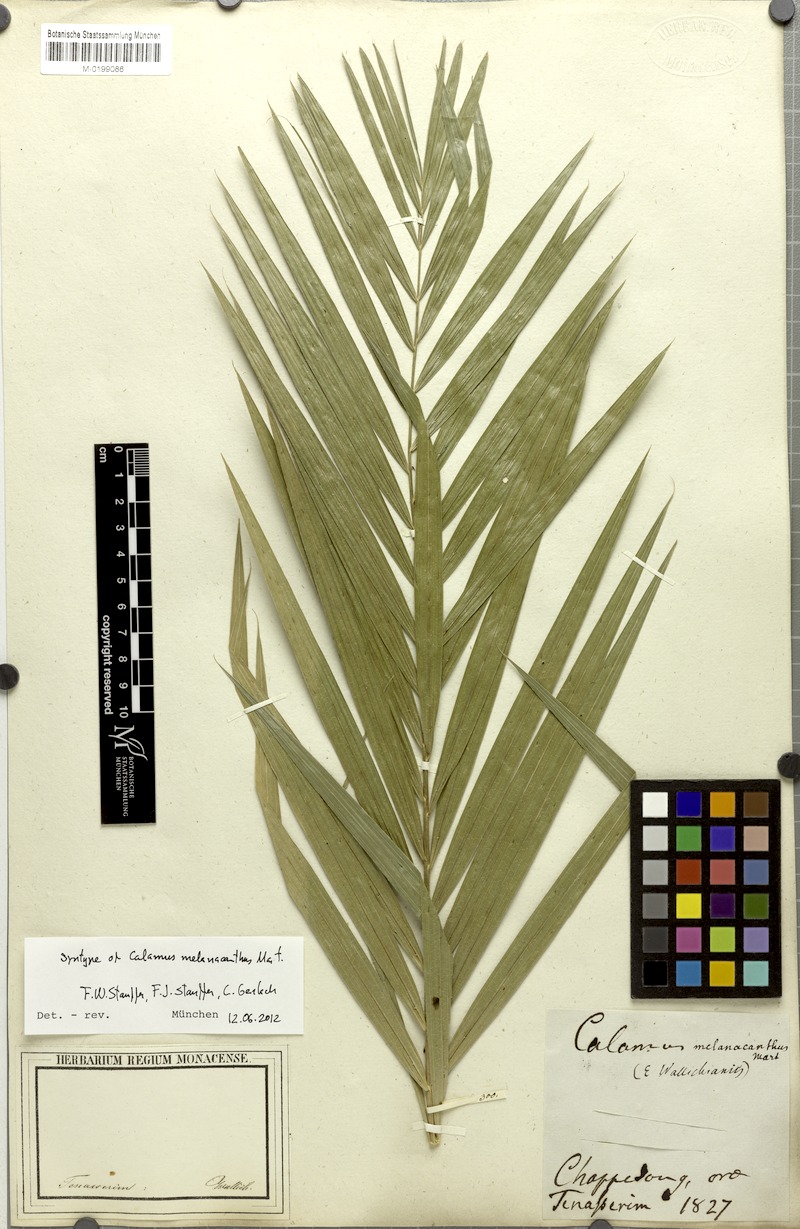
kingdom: Plantae
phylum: Tracheophyta
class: Liliopsida
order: Arecales
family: Arecaceae
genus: Calamus
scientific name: Calamus melanacanthus
